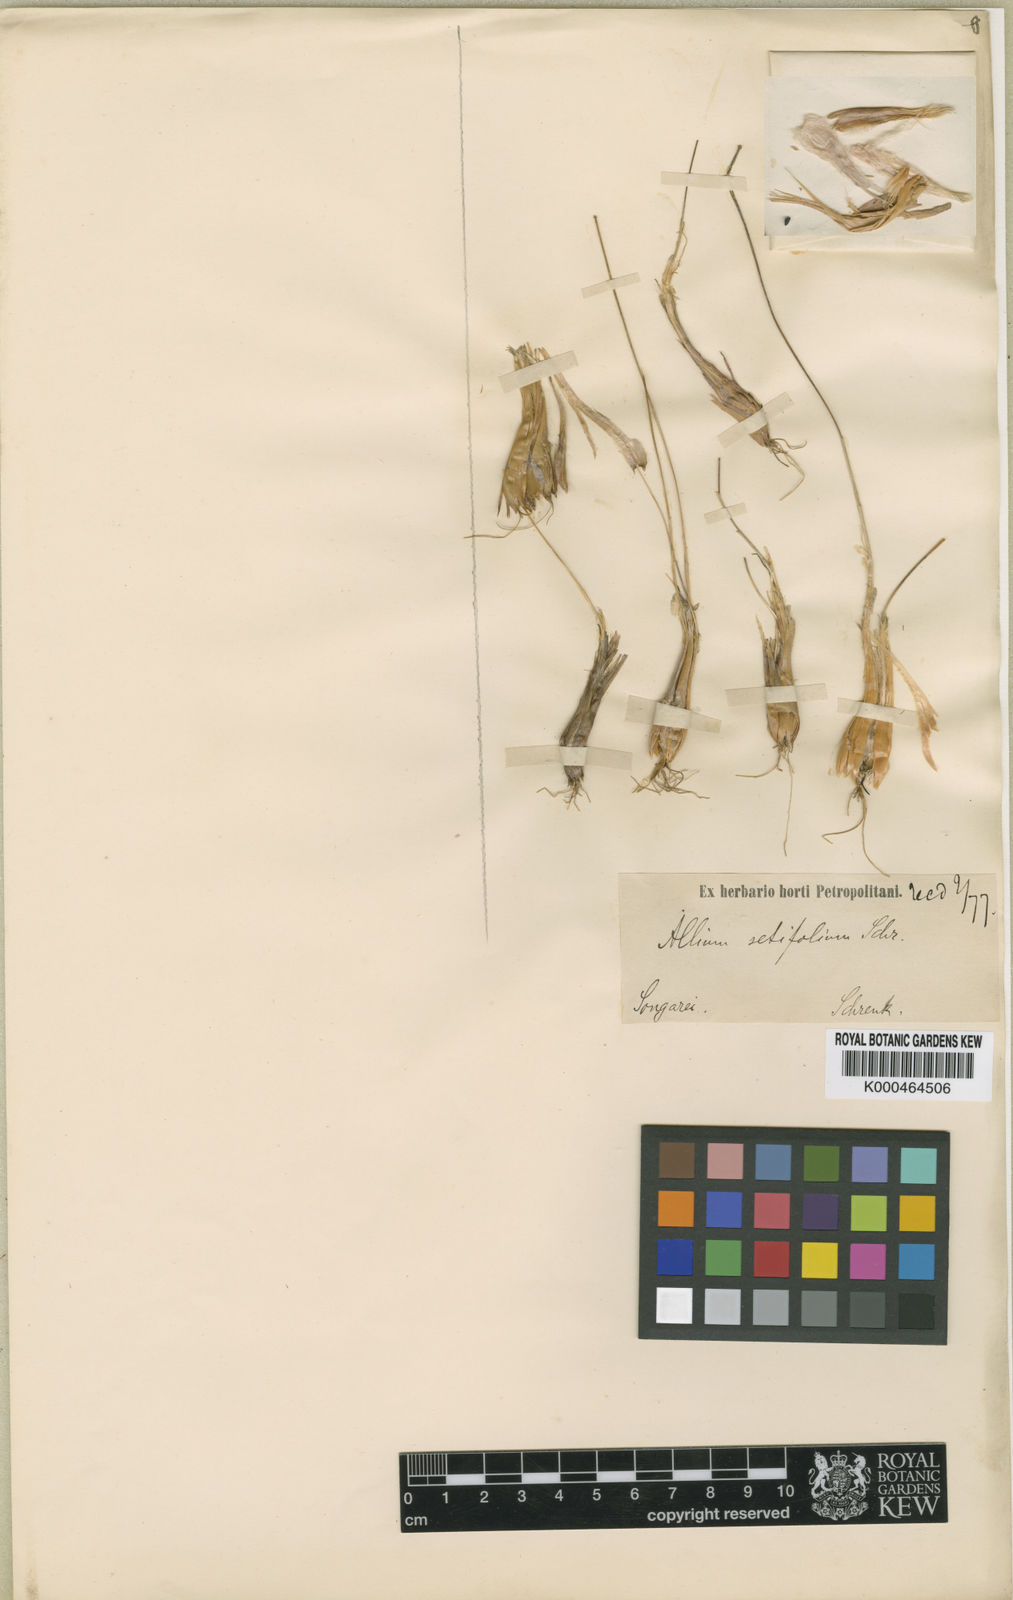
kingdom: Plantae
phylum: Tracheophyta
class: Liliopsida
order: Asparagales
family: Amaryllidaceae
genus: Allium
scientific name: Allium setifolium
